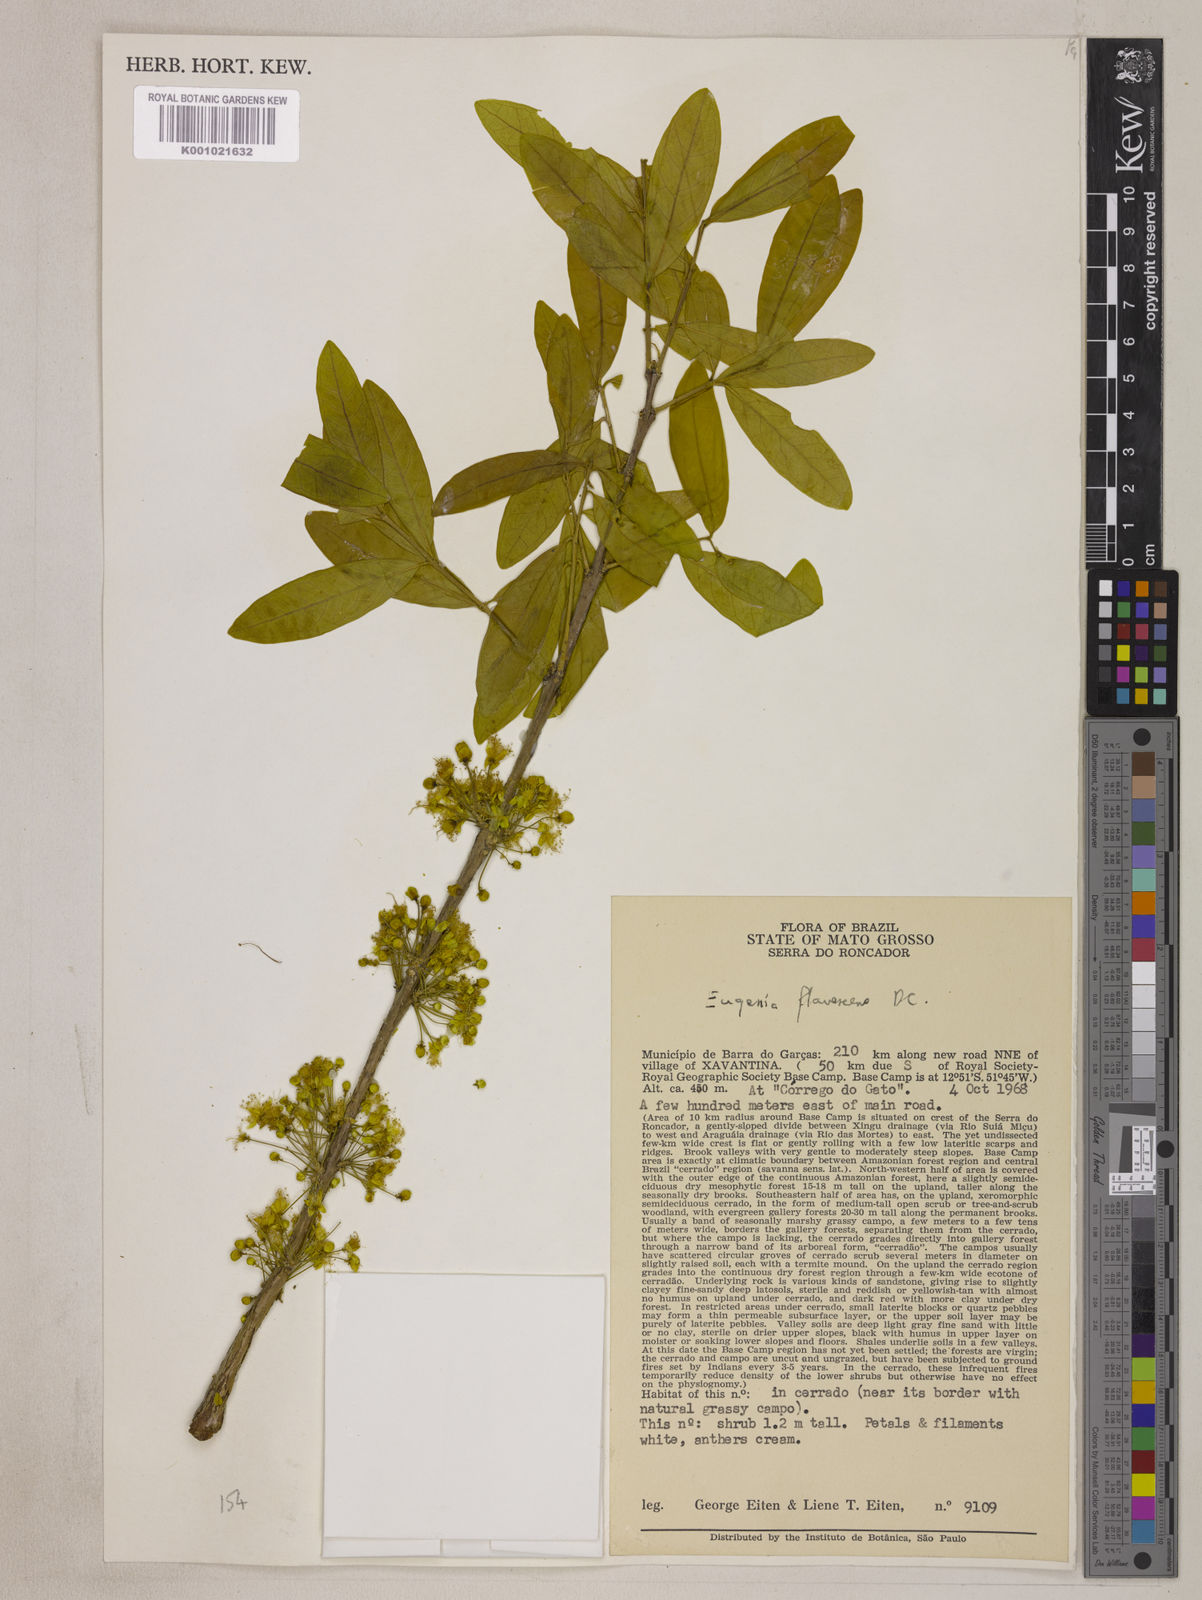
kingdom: Plantae
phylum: Tracheophyta
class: Magnoliopsida
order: Myrtales
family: Myrtaceae
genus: Eugenia
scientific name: Eugenia flavescens
